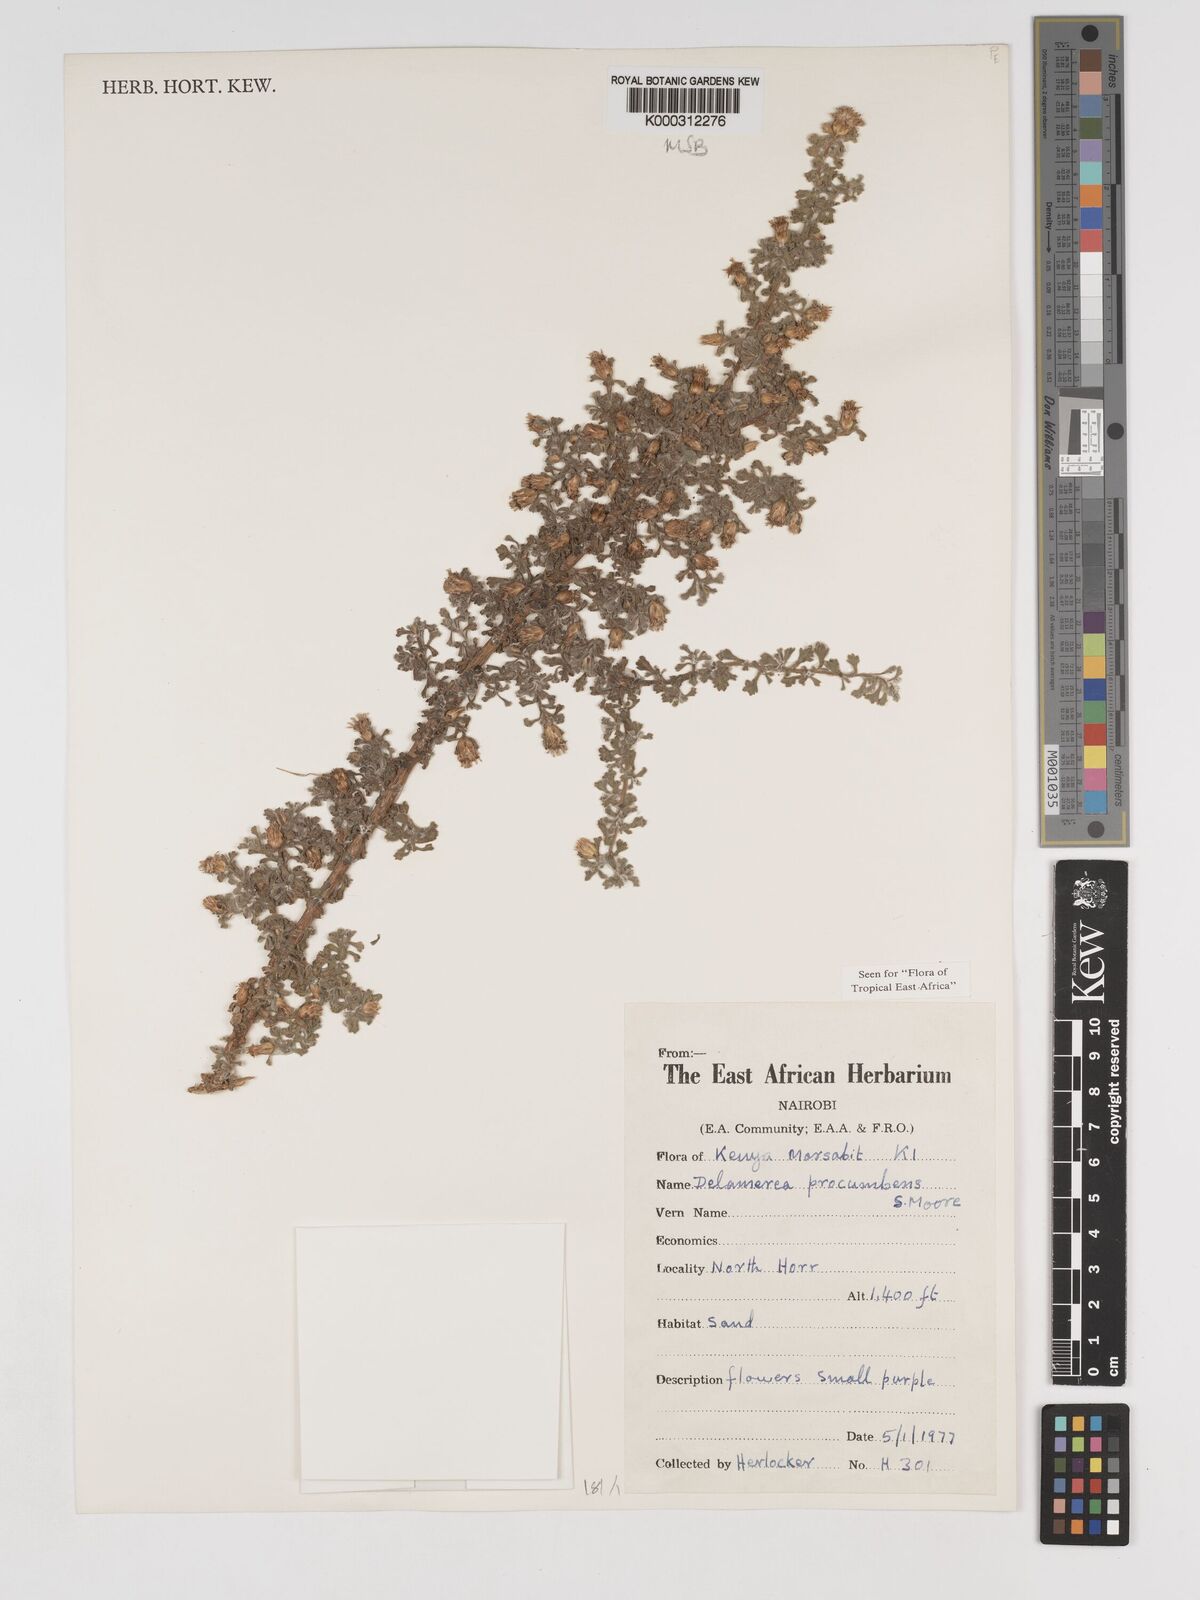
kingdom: Plantae
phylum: Tracheophyta
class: Magnoliopsida
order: Asterales
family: Asteraceae
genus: Delamerea
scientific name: Delamerea procumbens
